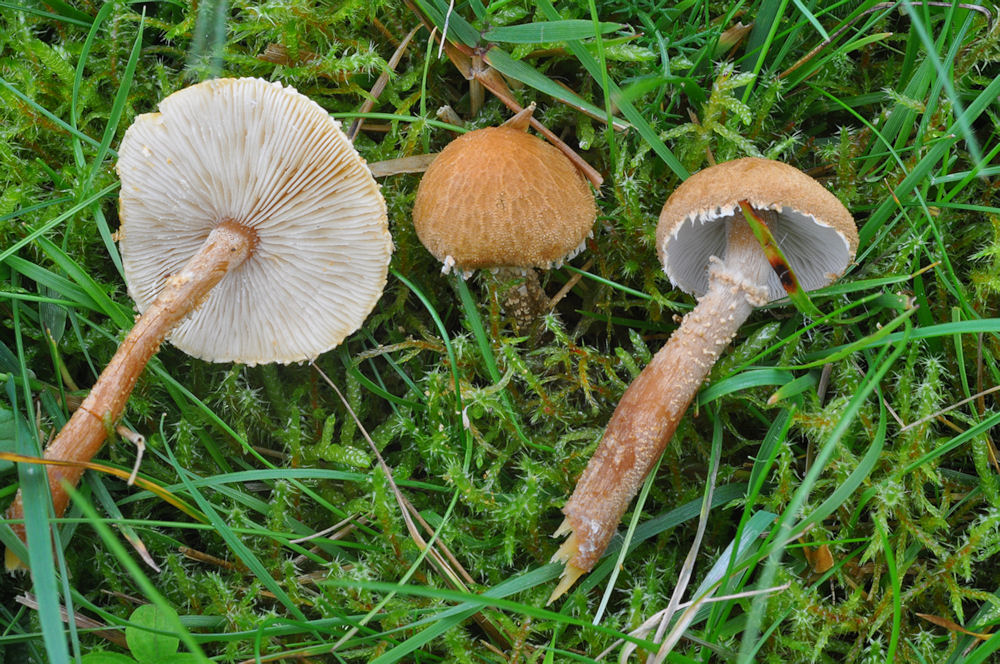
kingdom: Fungi
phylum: Basidiomycota
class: Agaricomycetes
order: Agaricales
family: Tricholomataceae
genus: Cystoderma
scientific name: Cystoderma amianthinum
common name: okkergul grynhat
